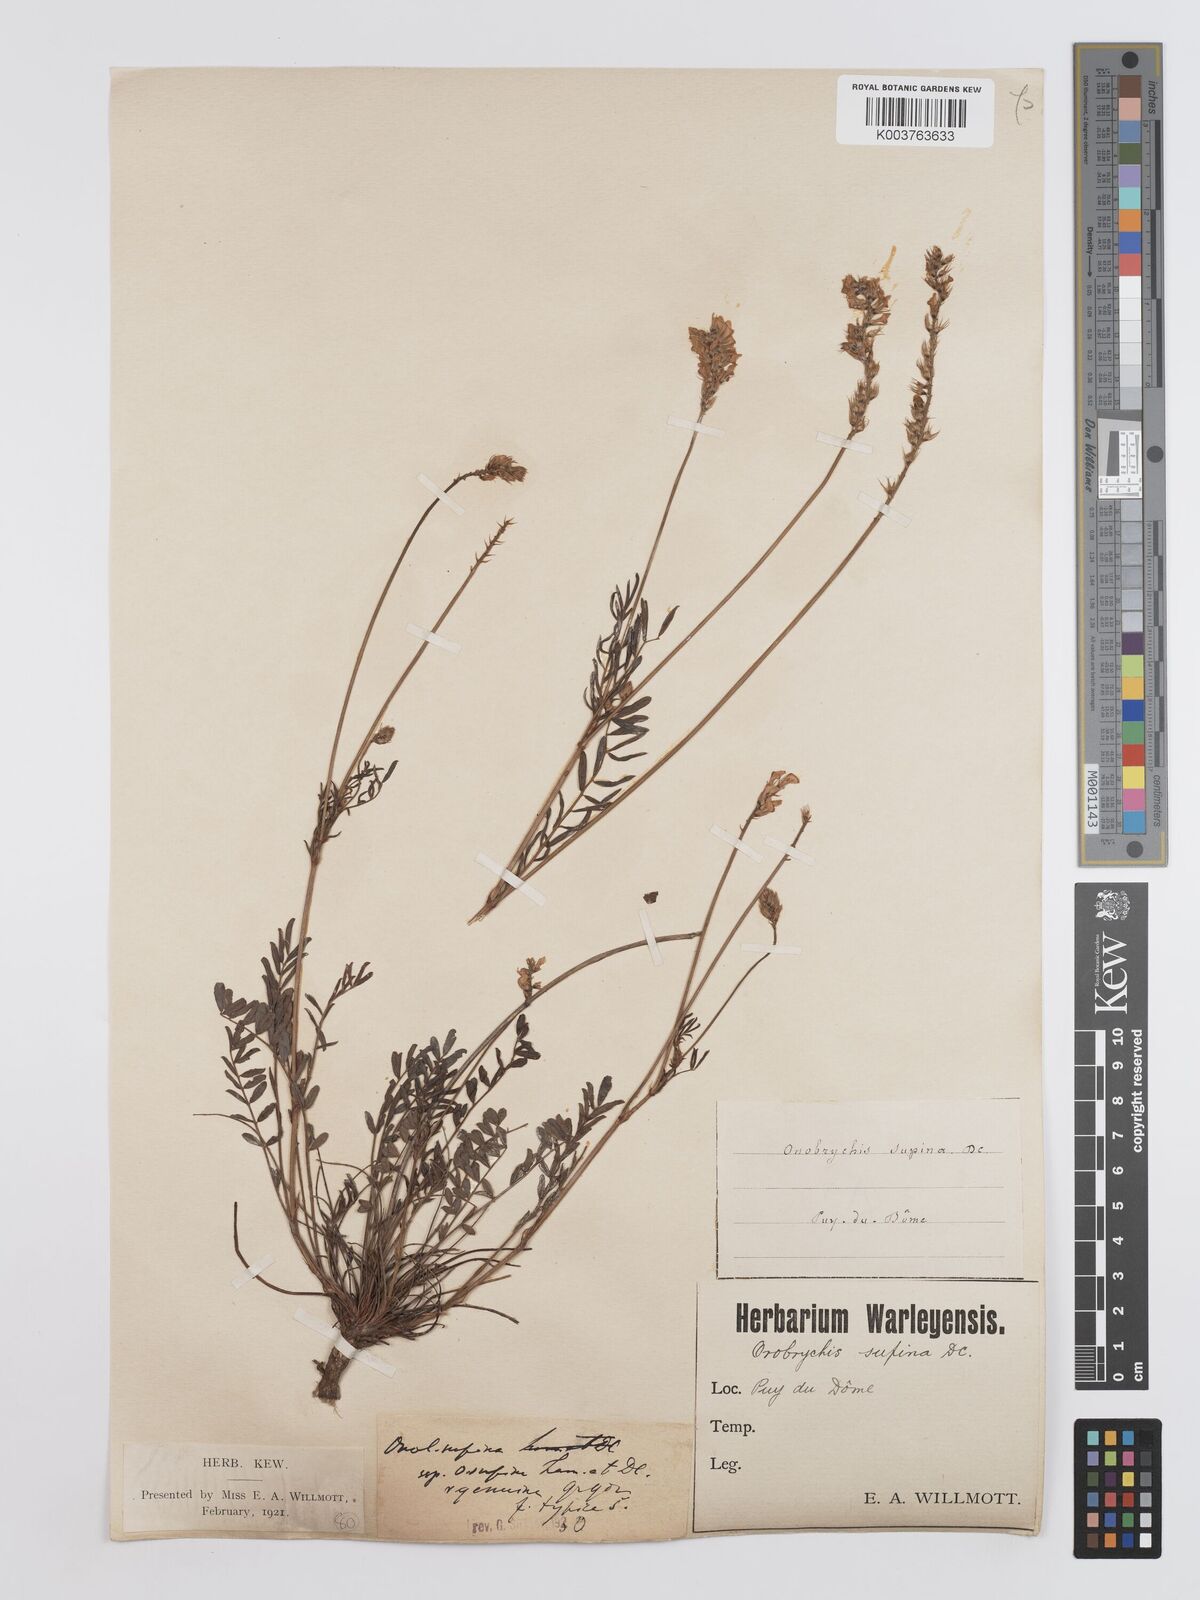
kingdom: Plantae
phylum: Tracheophyta
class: Magnoliopsida
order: Fabales
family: Fabaceae
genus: Onobrychis
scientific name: Onobrychis supina
